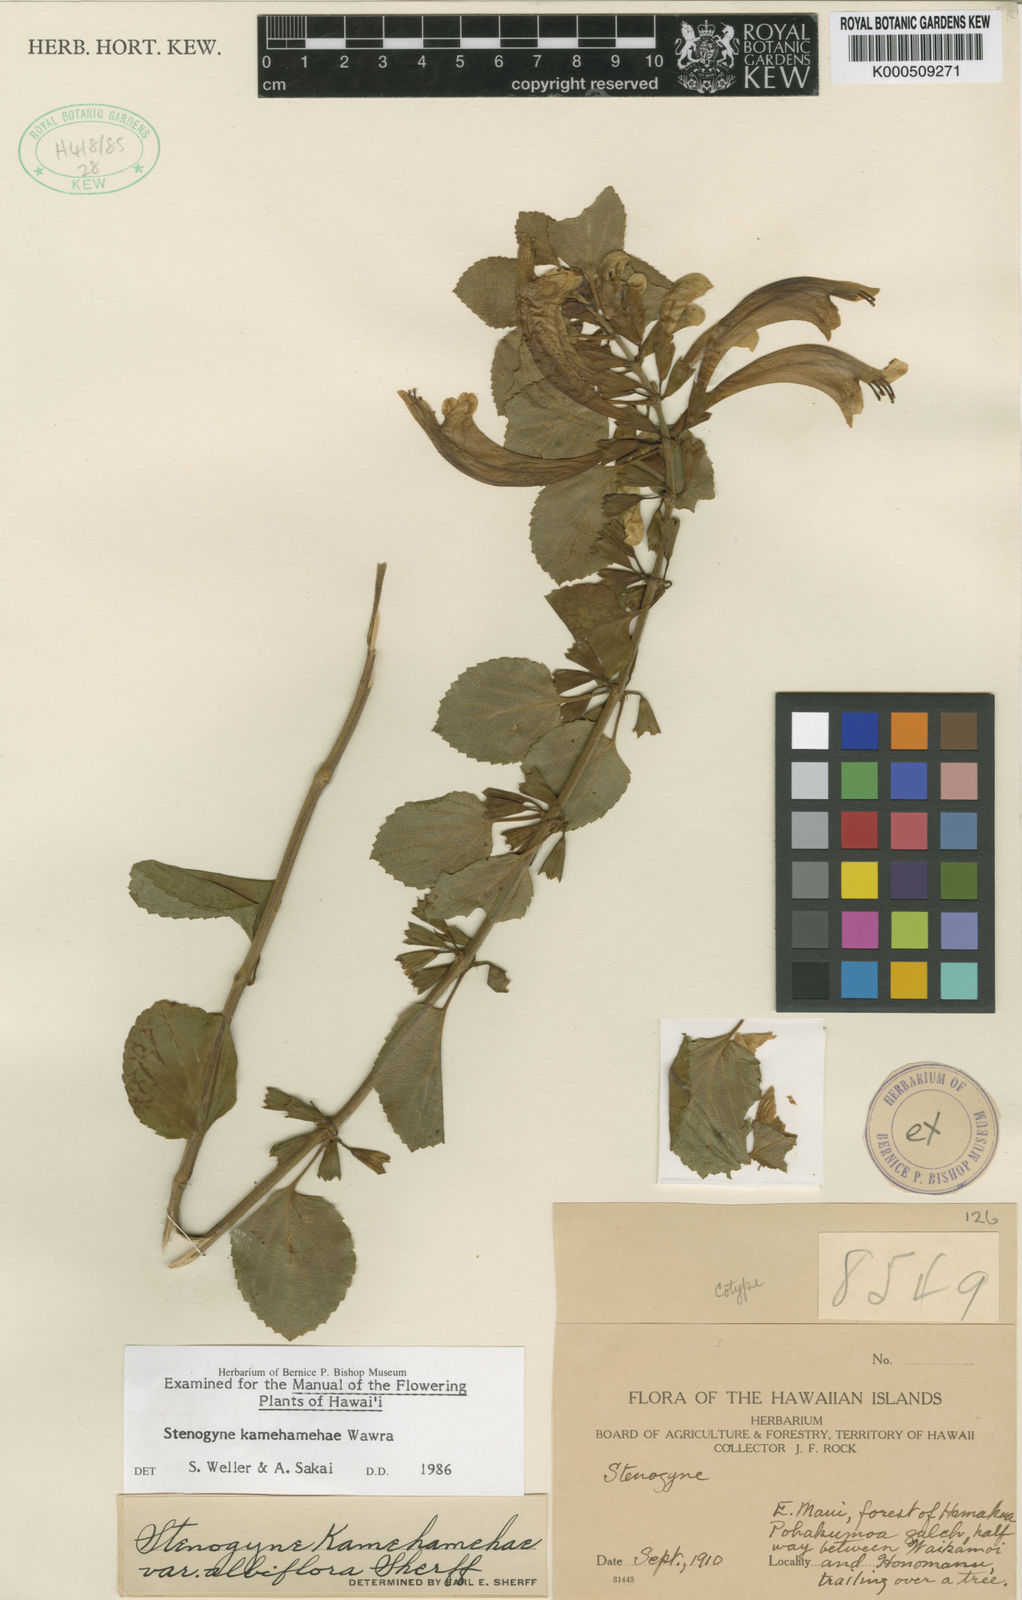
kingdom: Plantae
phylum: Tracheophyta
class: Magnoliopsida
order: Lamiales
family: Lamiaceae
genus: Stenogyne
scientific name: Stenogyne kamehamehae
